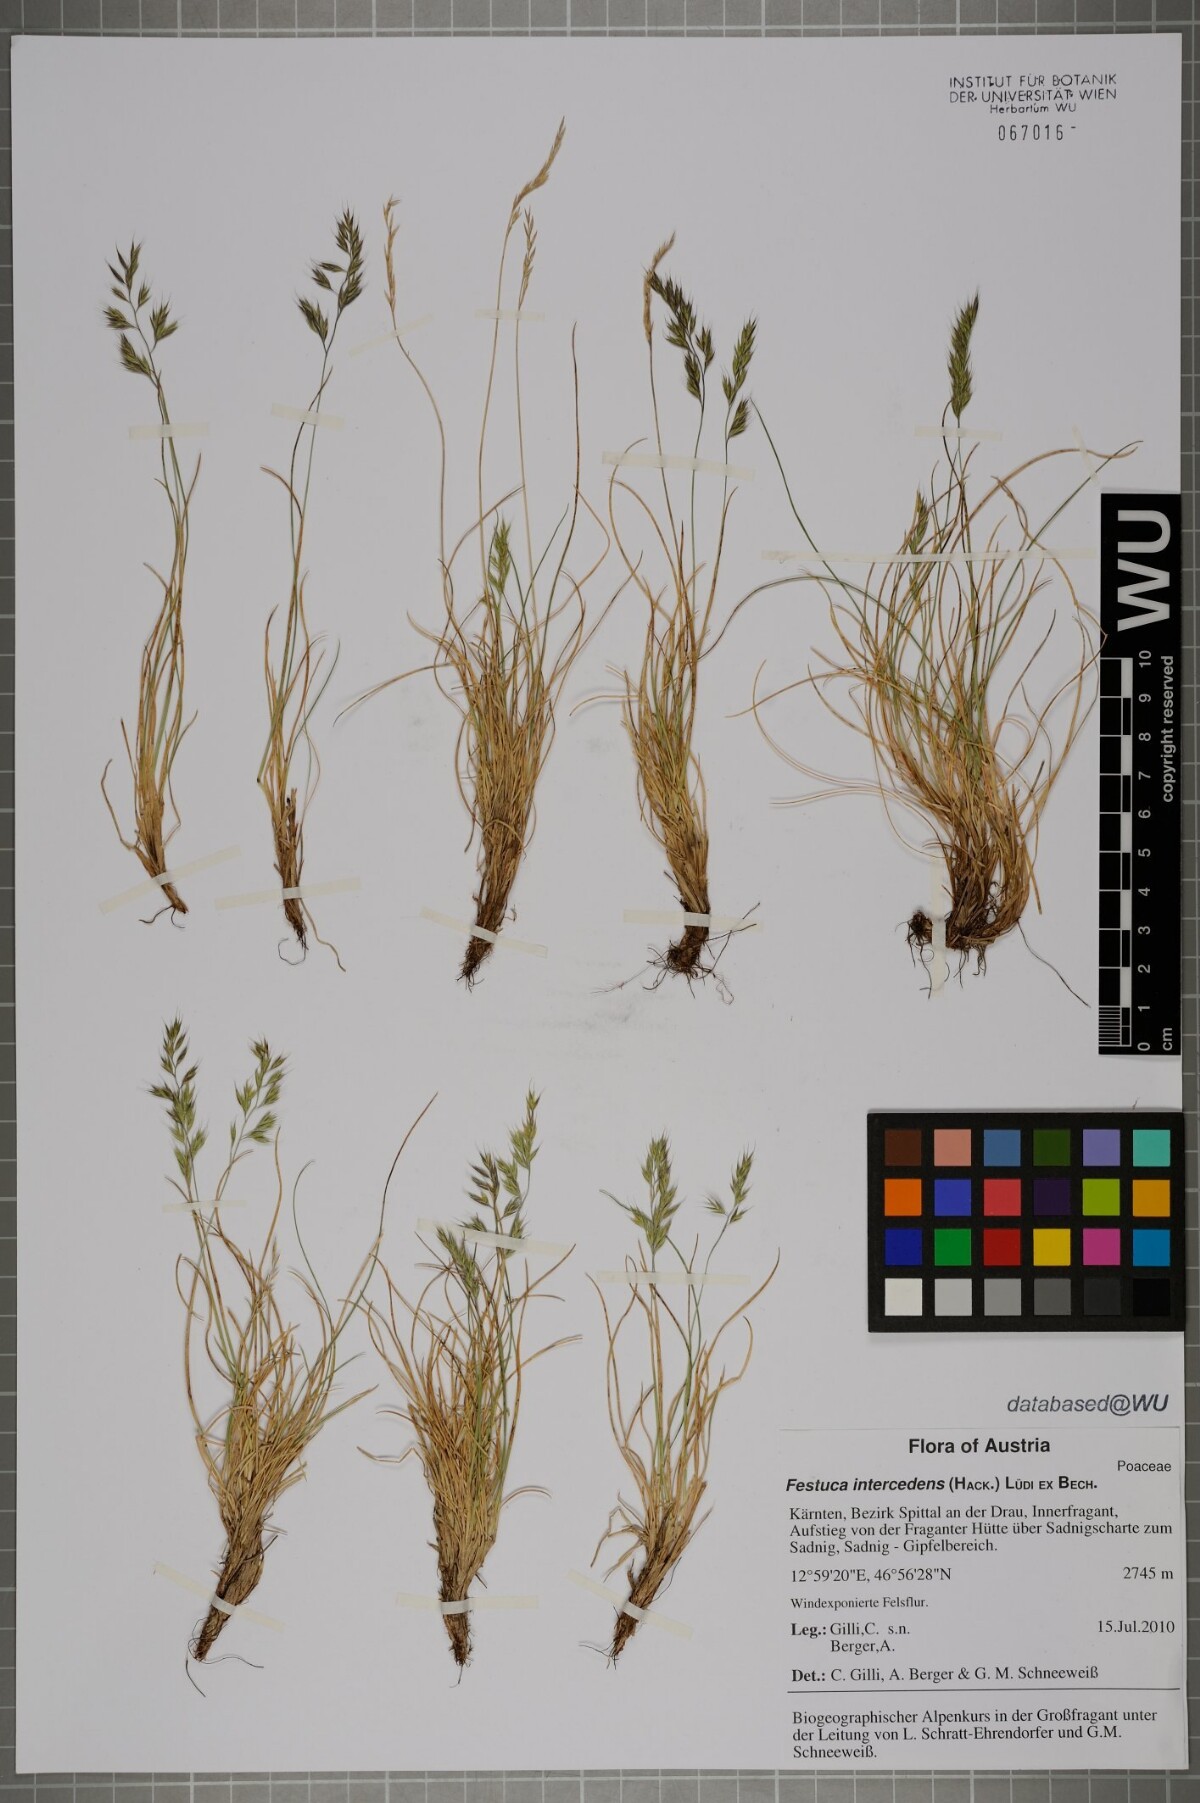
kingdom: Plantae
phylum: Tracheophyta
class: Liliopsida
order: Poales
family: Poaceae
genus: Festuca
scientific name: Festuca intercedens
